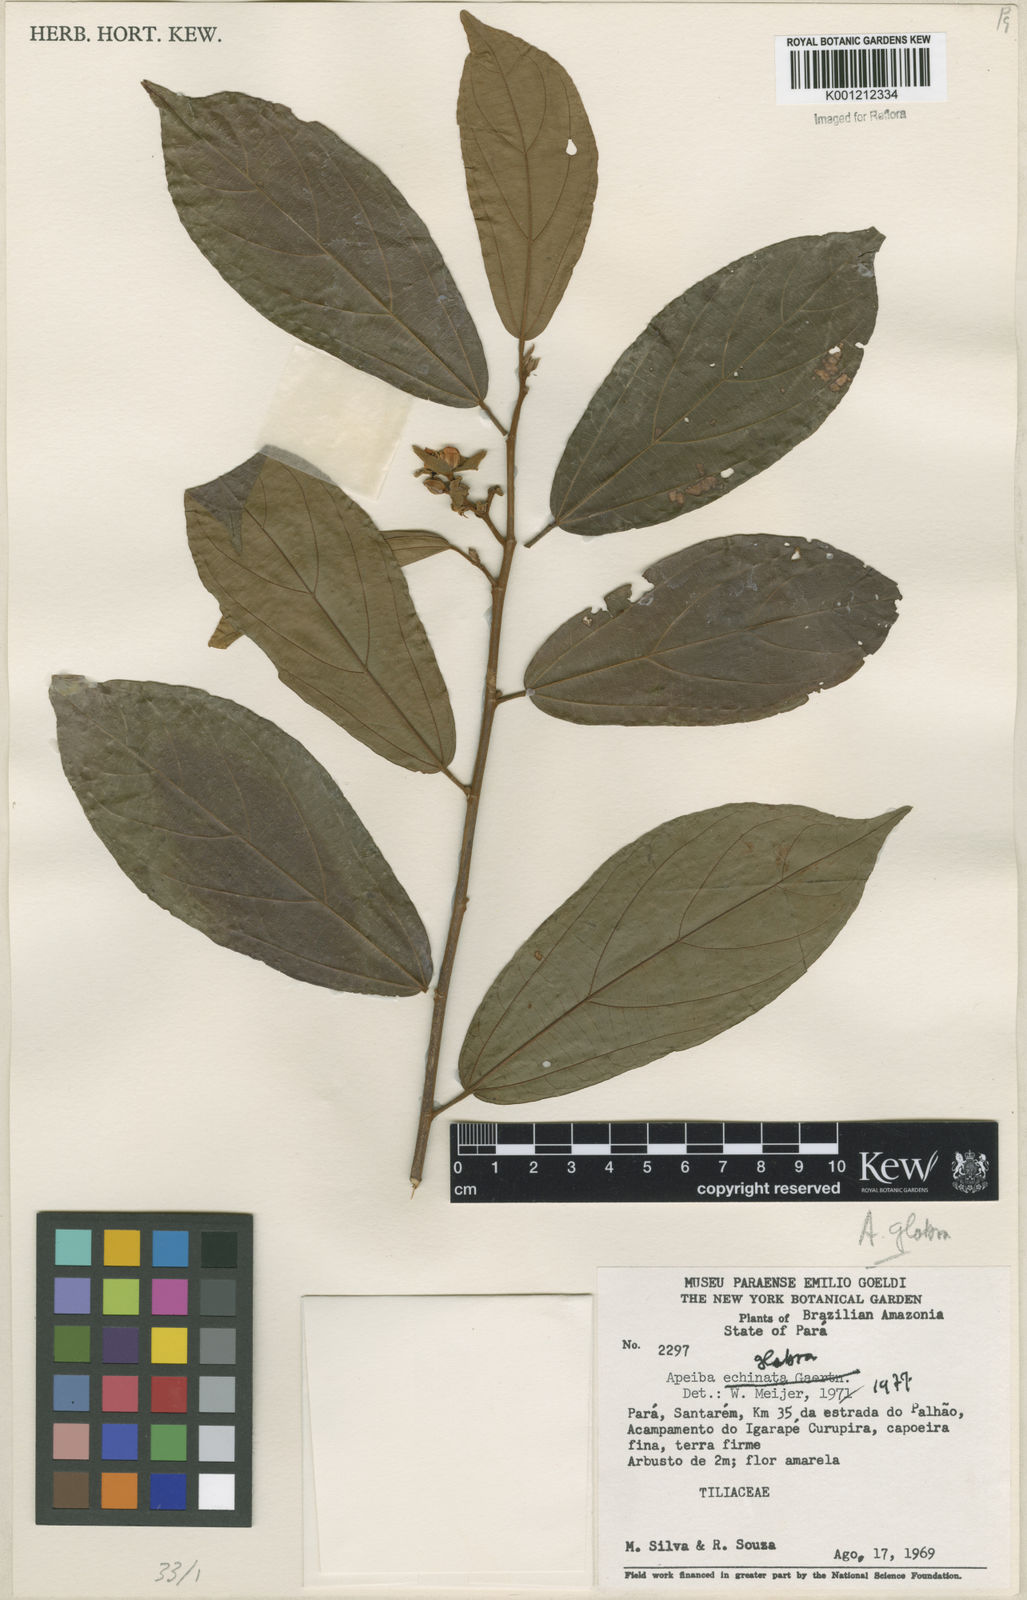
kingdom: Plantae
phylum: Tracheophyta
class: Magnoliopsida
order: Malvales
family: Malvaceae
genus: Apeiba
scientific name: Apeiba glabra
